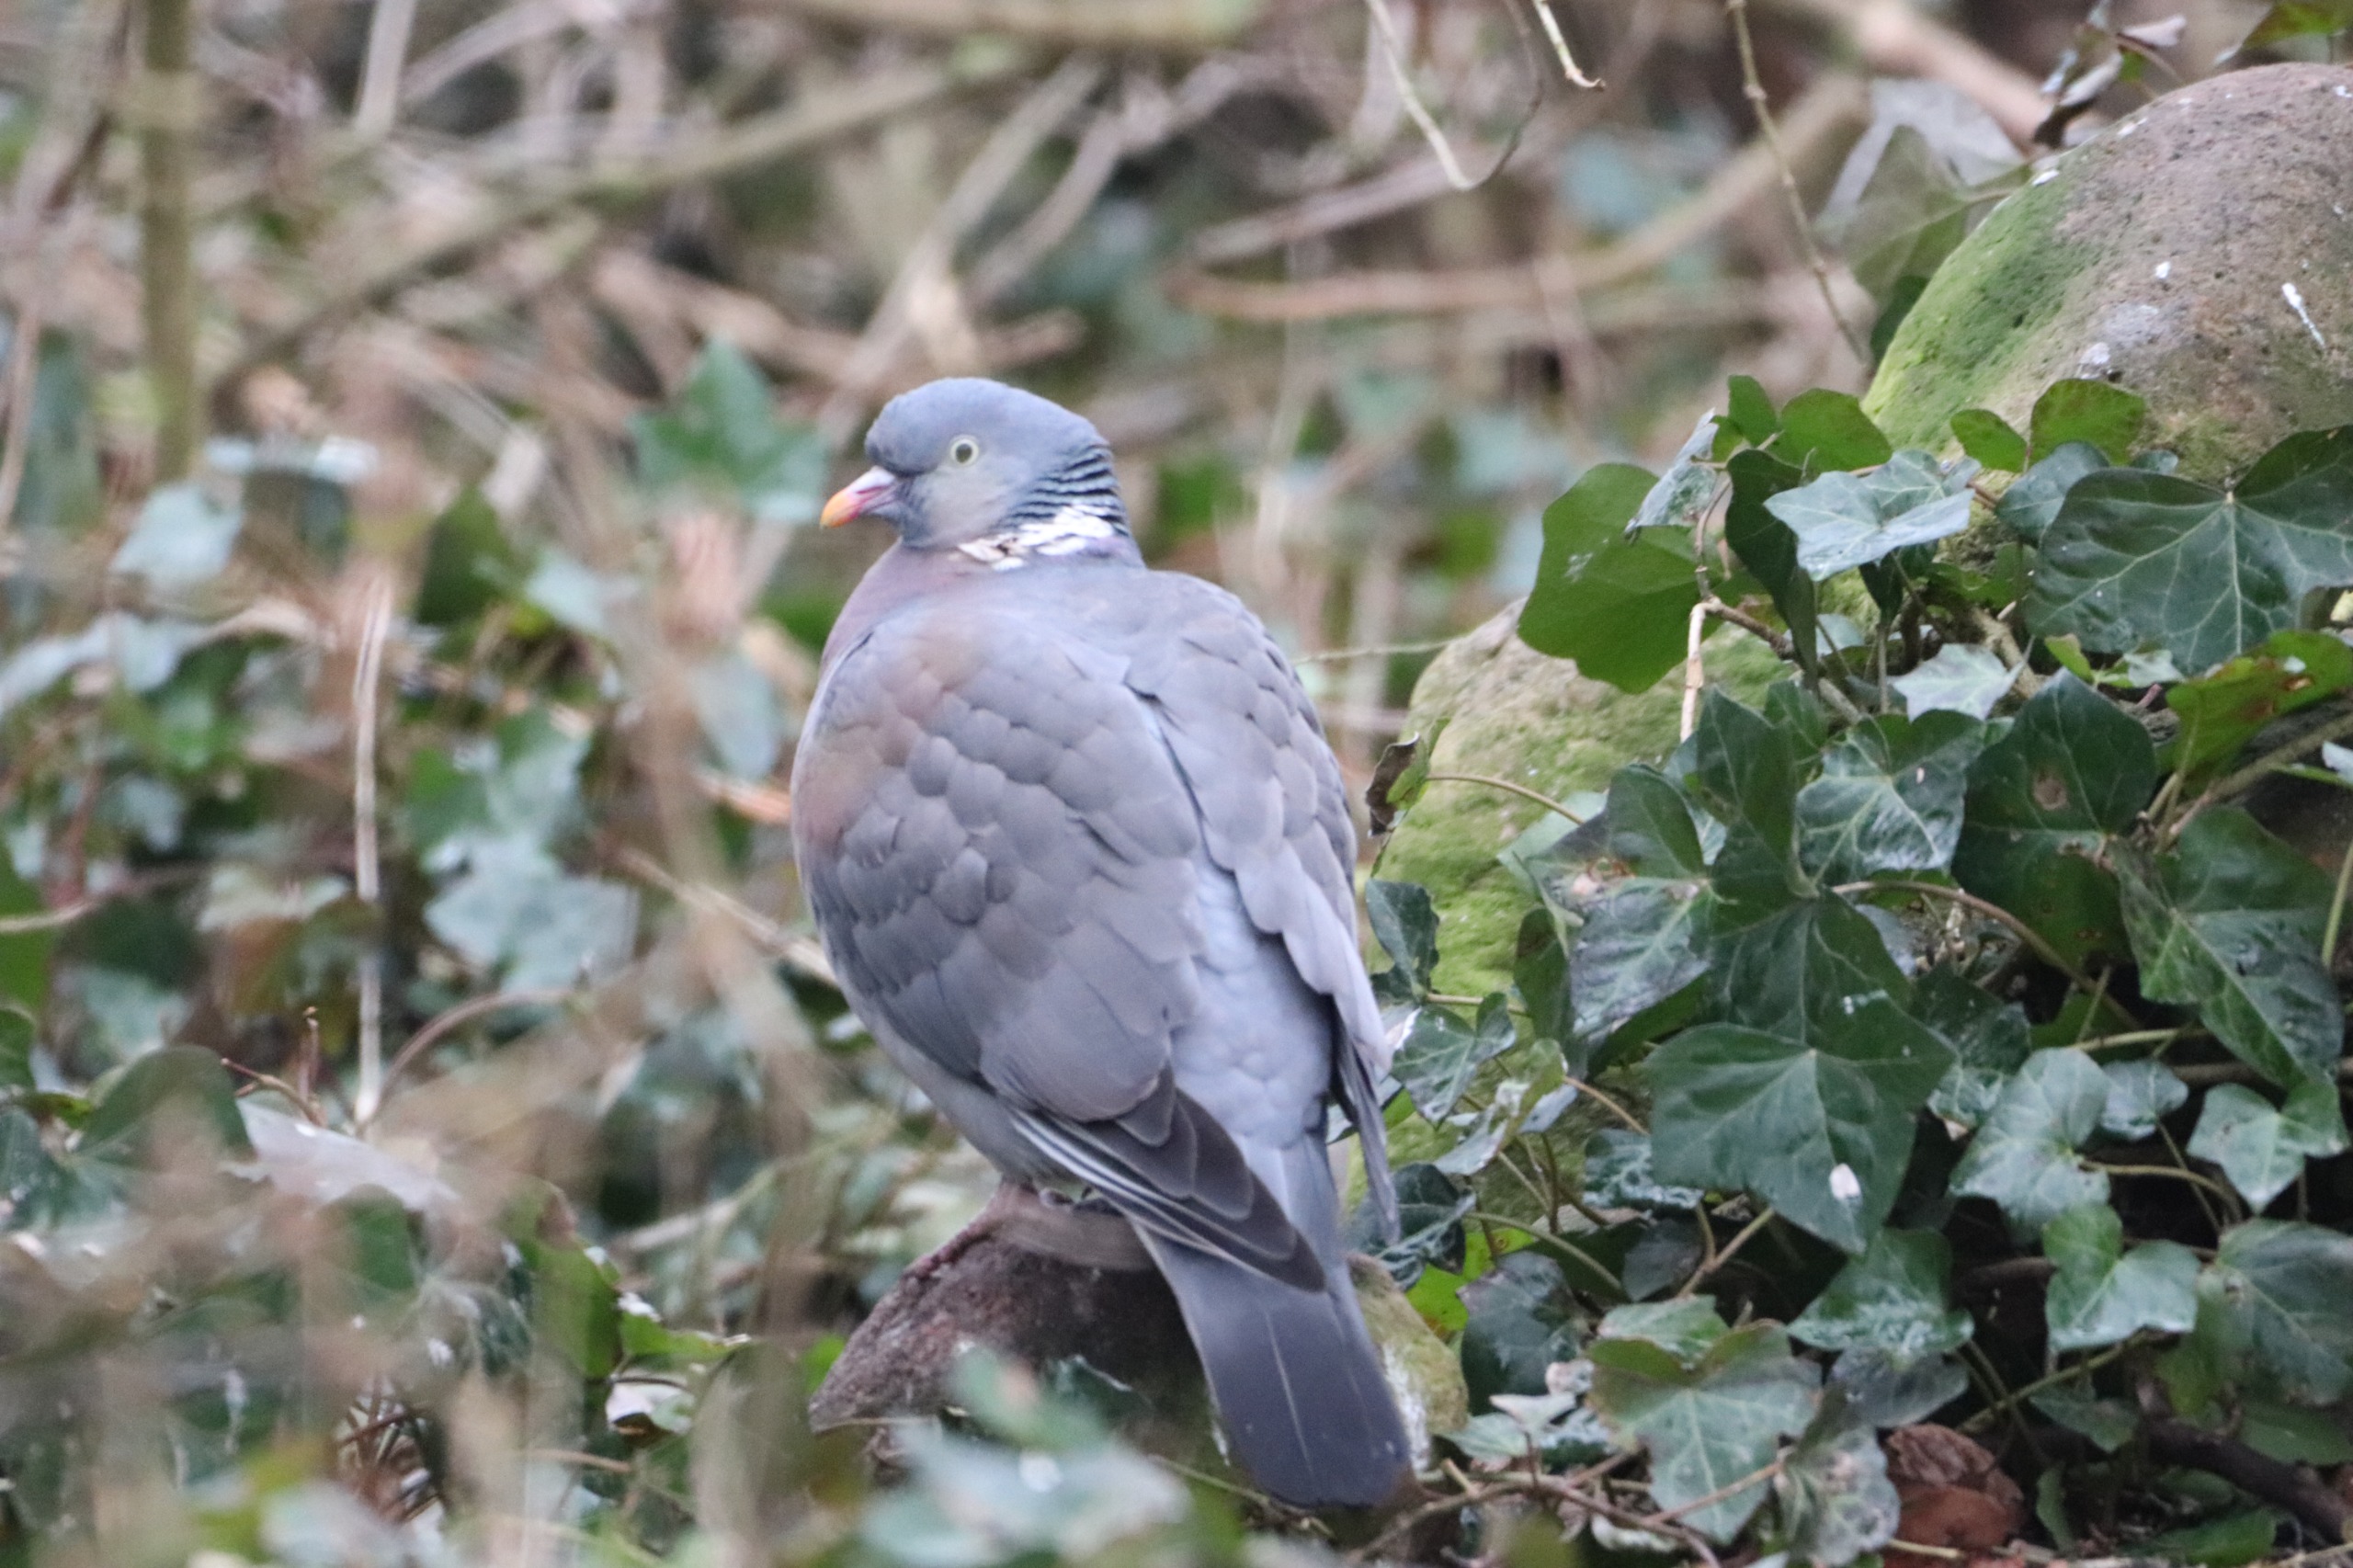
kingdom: Animalia
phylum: Chordata
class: Aves
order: Columbiformes
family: Columbidae
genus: Columba
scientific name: Columba palumbus
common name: Ringdue
